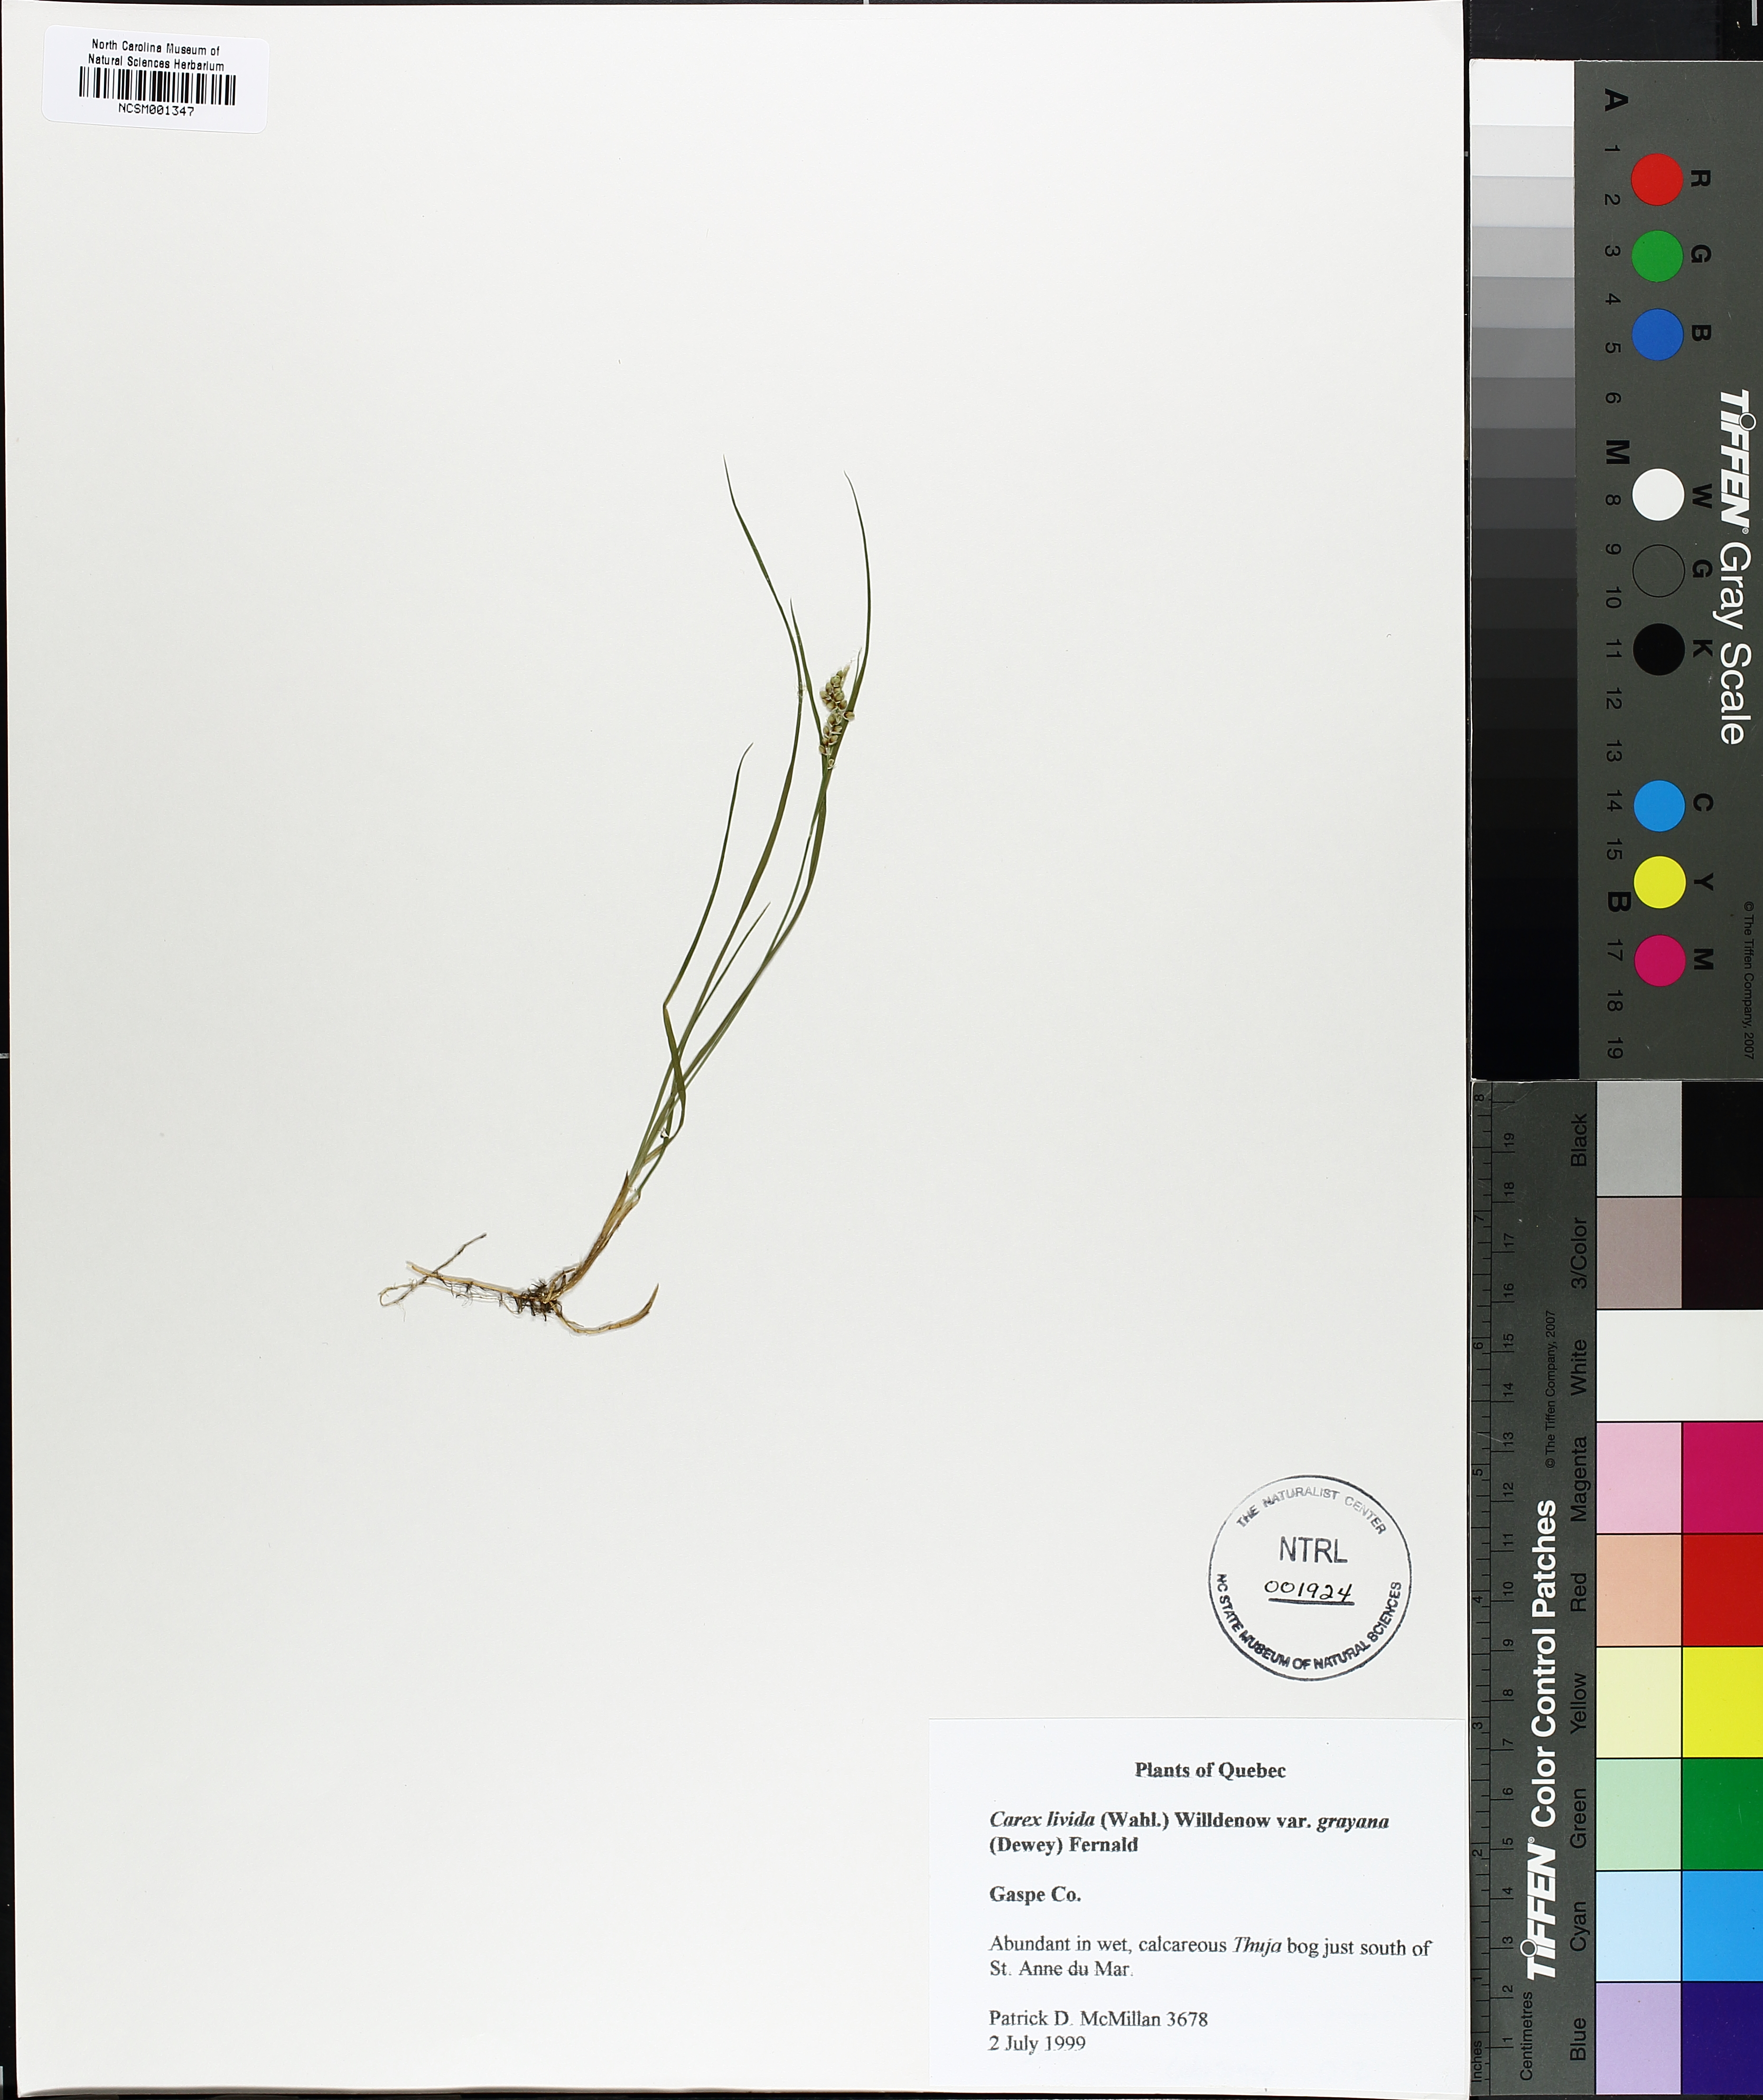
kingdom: Plantae
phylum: Tracheophyta
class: Liliopsida
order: Poales
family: Cyperaceae
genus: Carex
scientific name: Carex livida
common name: Livid sedge
